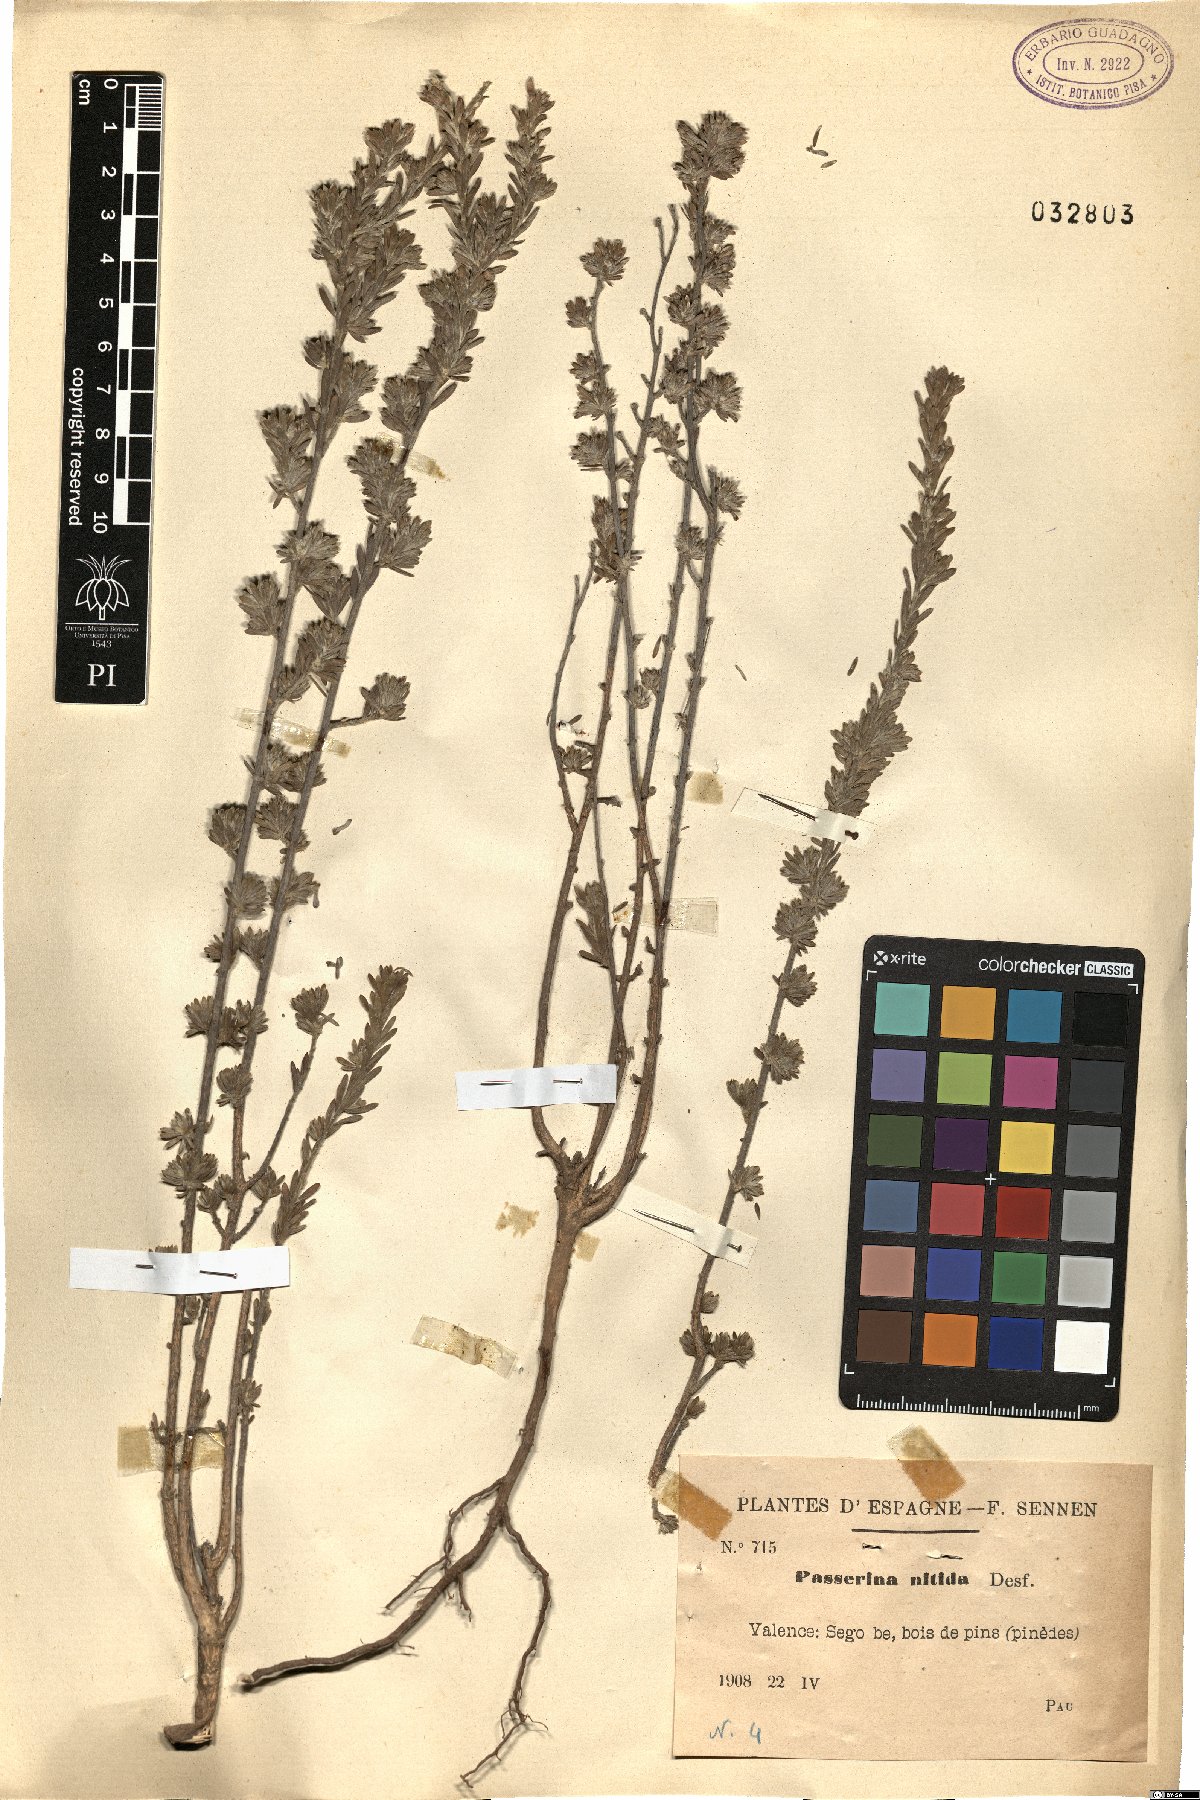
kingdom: Plantae
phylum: Tracheophyta
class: Magnoliopsida
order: Malvales
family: Thymelaeaceae
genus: Thymelaea
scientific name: Thymelaea argentata
